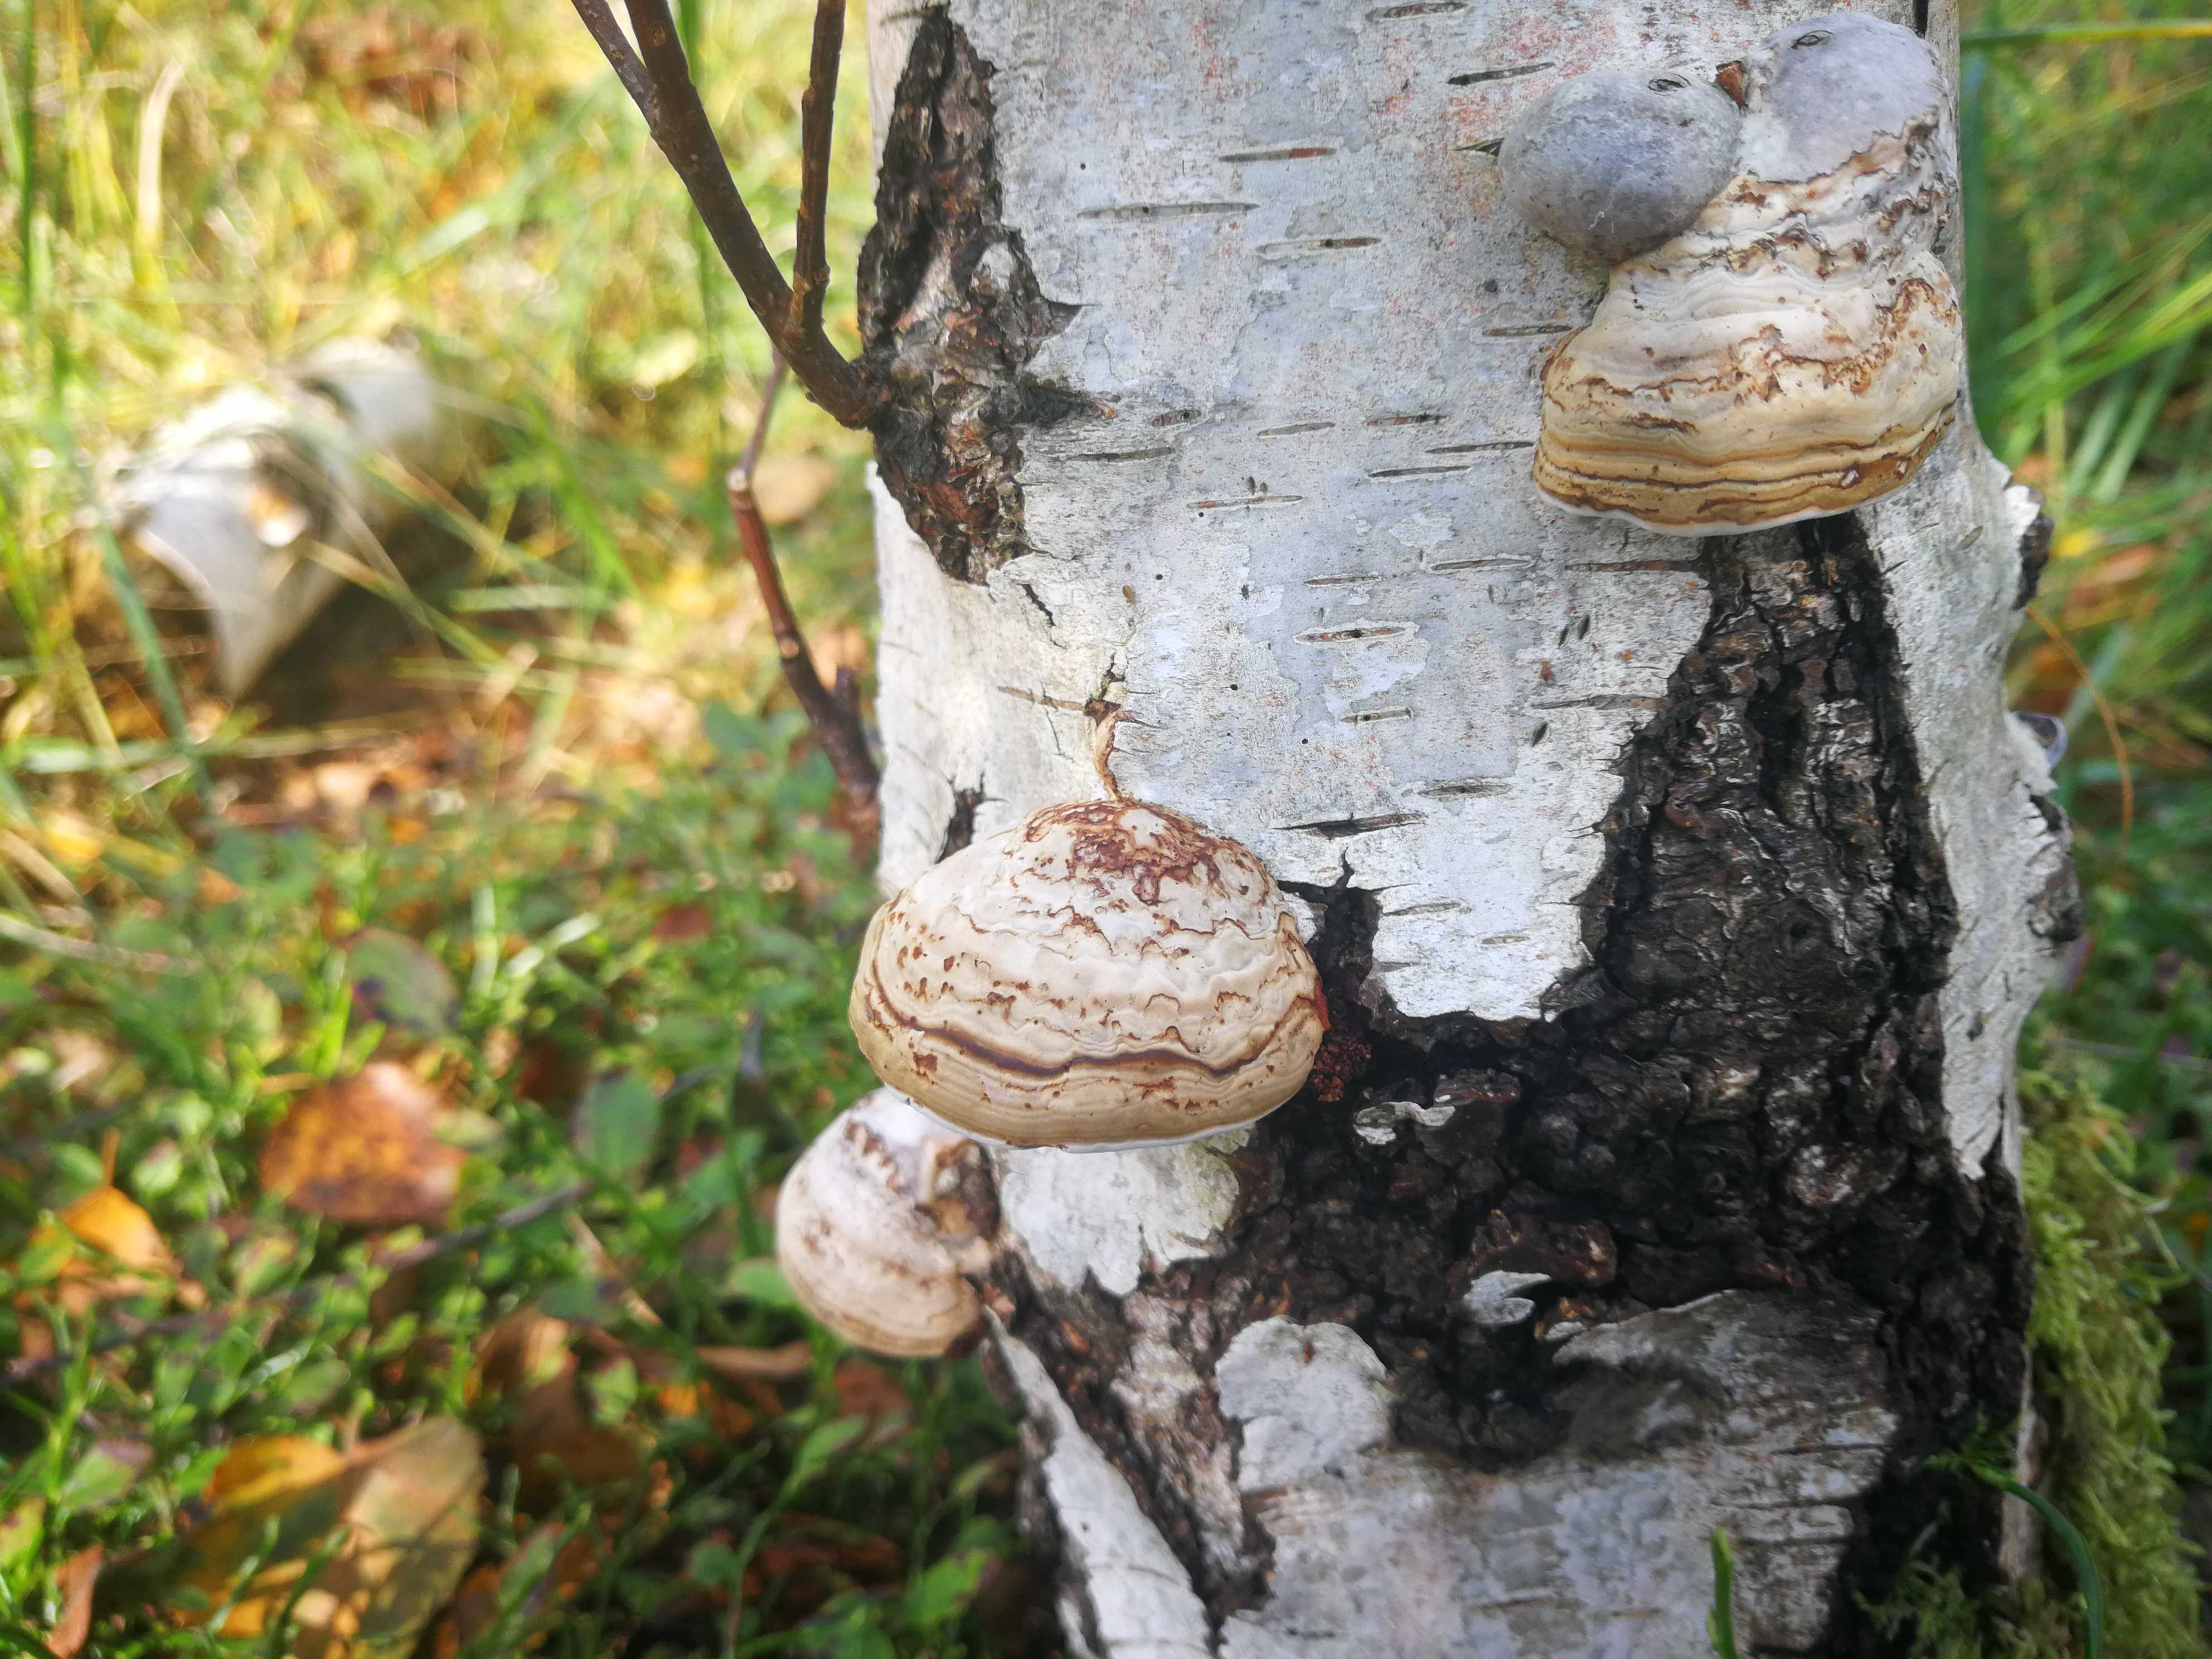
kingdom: Fungi
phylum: Basidiomycota
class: Agaricomycetes
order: Polyporales
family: Polyporaceae
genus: Fomes
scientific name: Fomes fomentarius
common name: tøndersvamp
